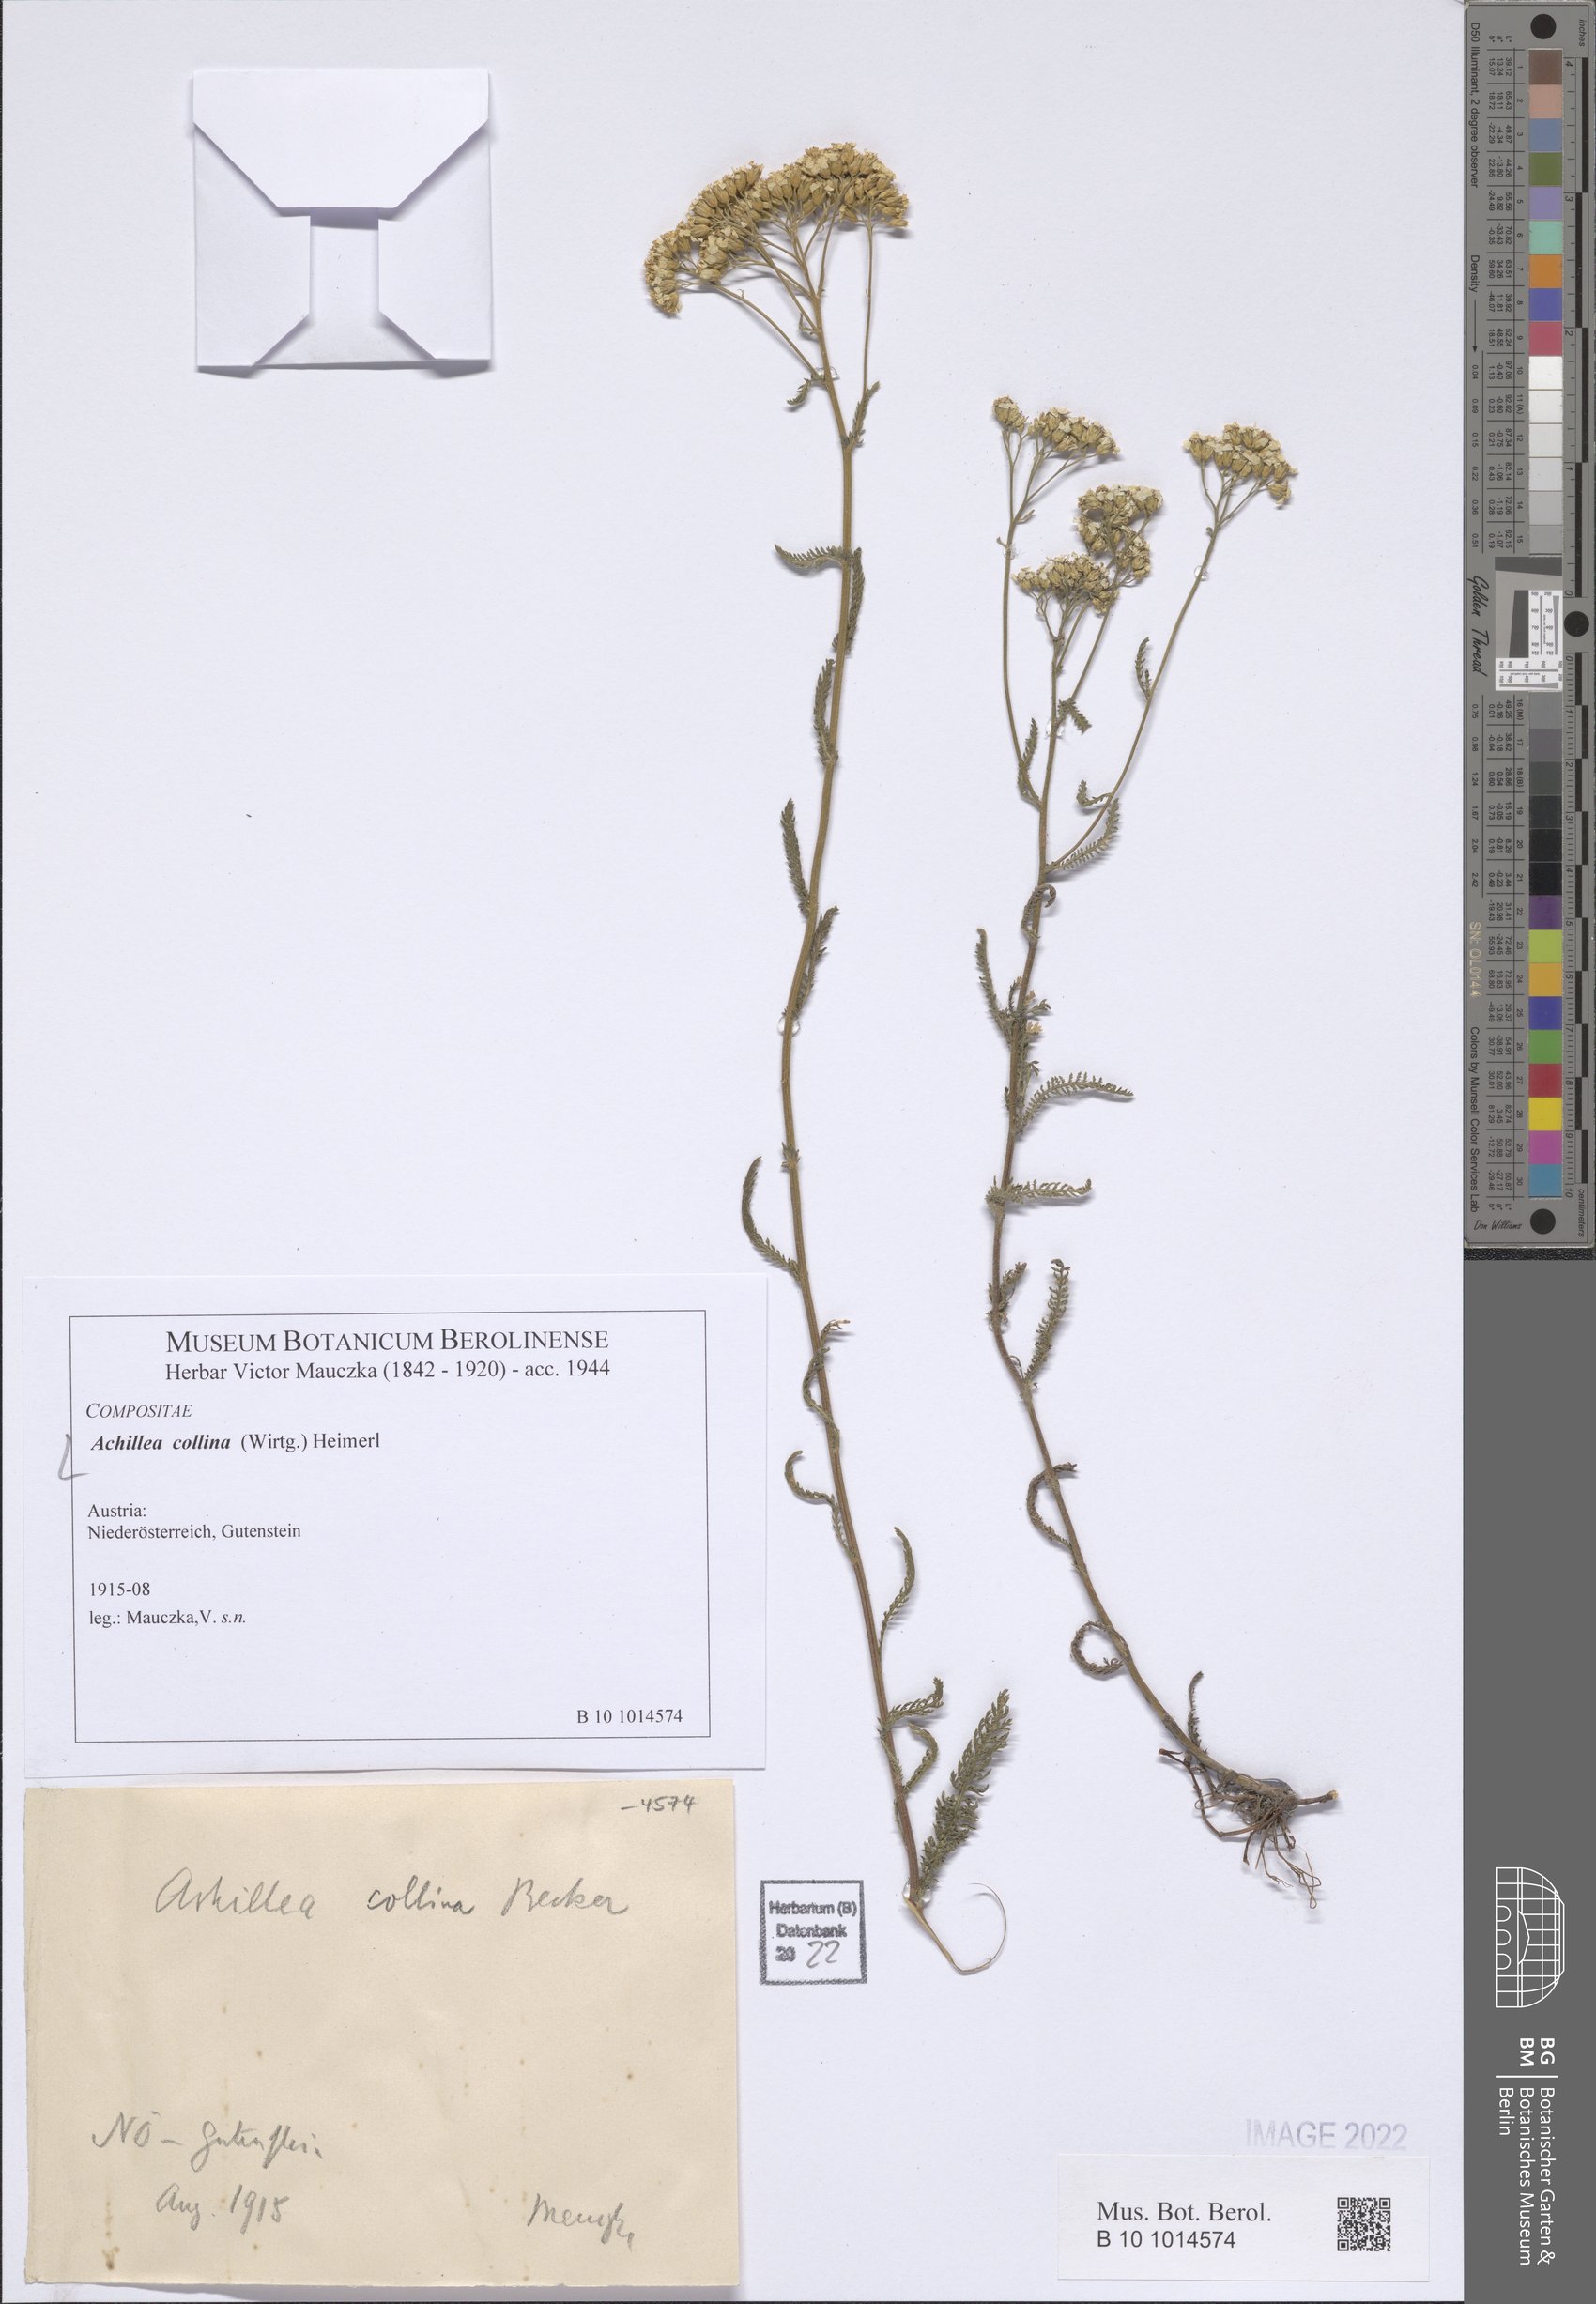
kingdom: Plantae
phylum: Tracheophyta
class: Magnoliopsida
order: Asterales
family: Asteraceae
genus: Achillea
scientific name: Achillea collina
